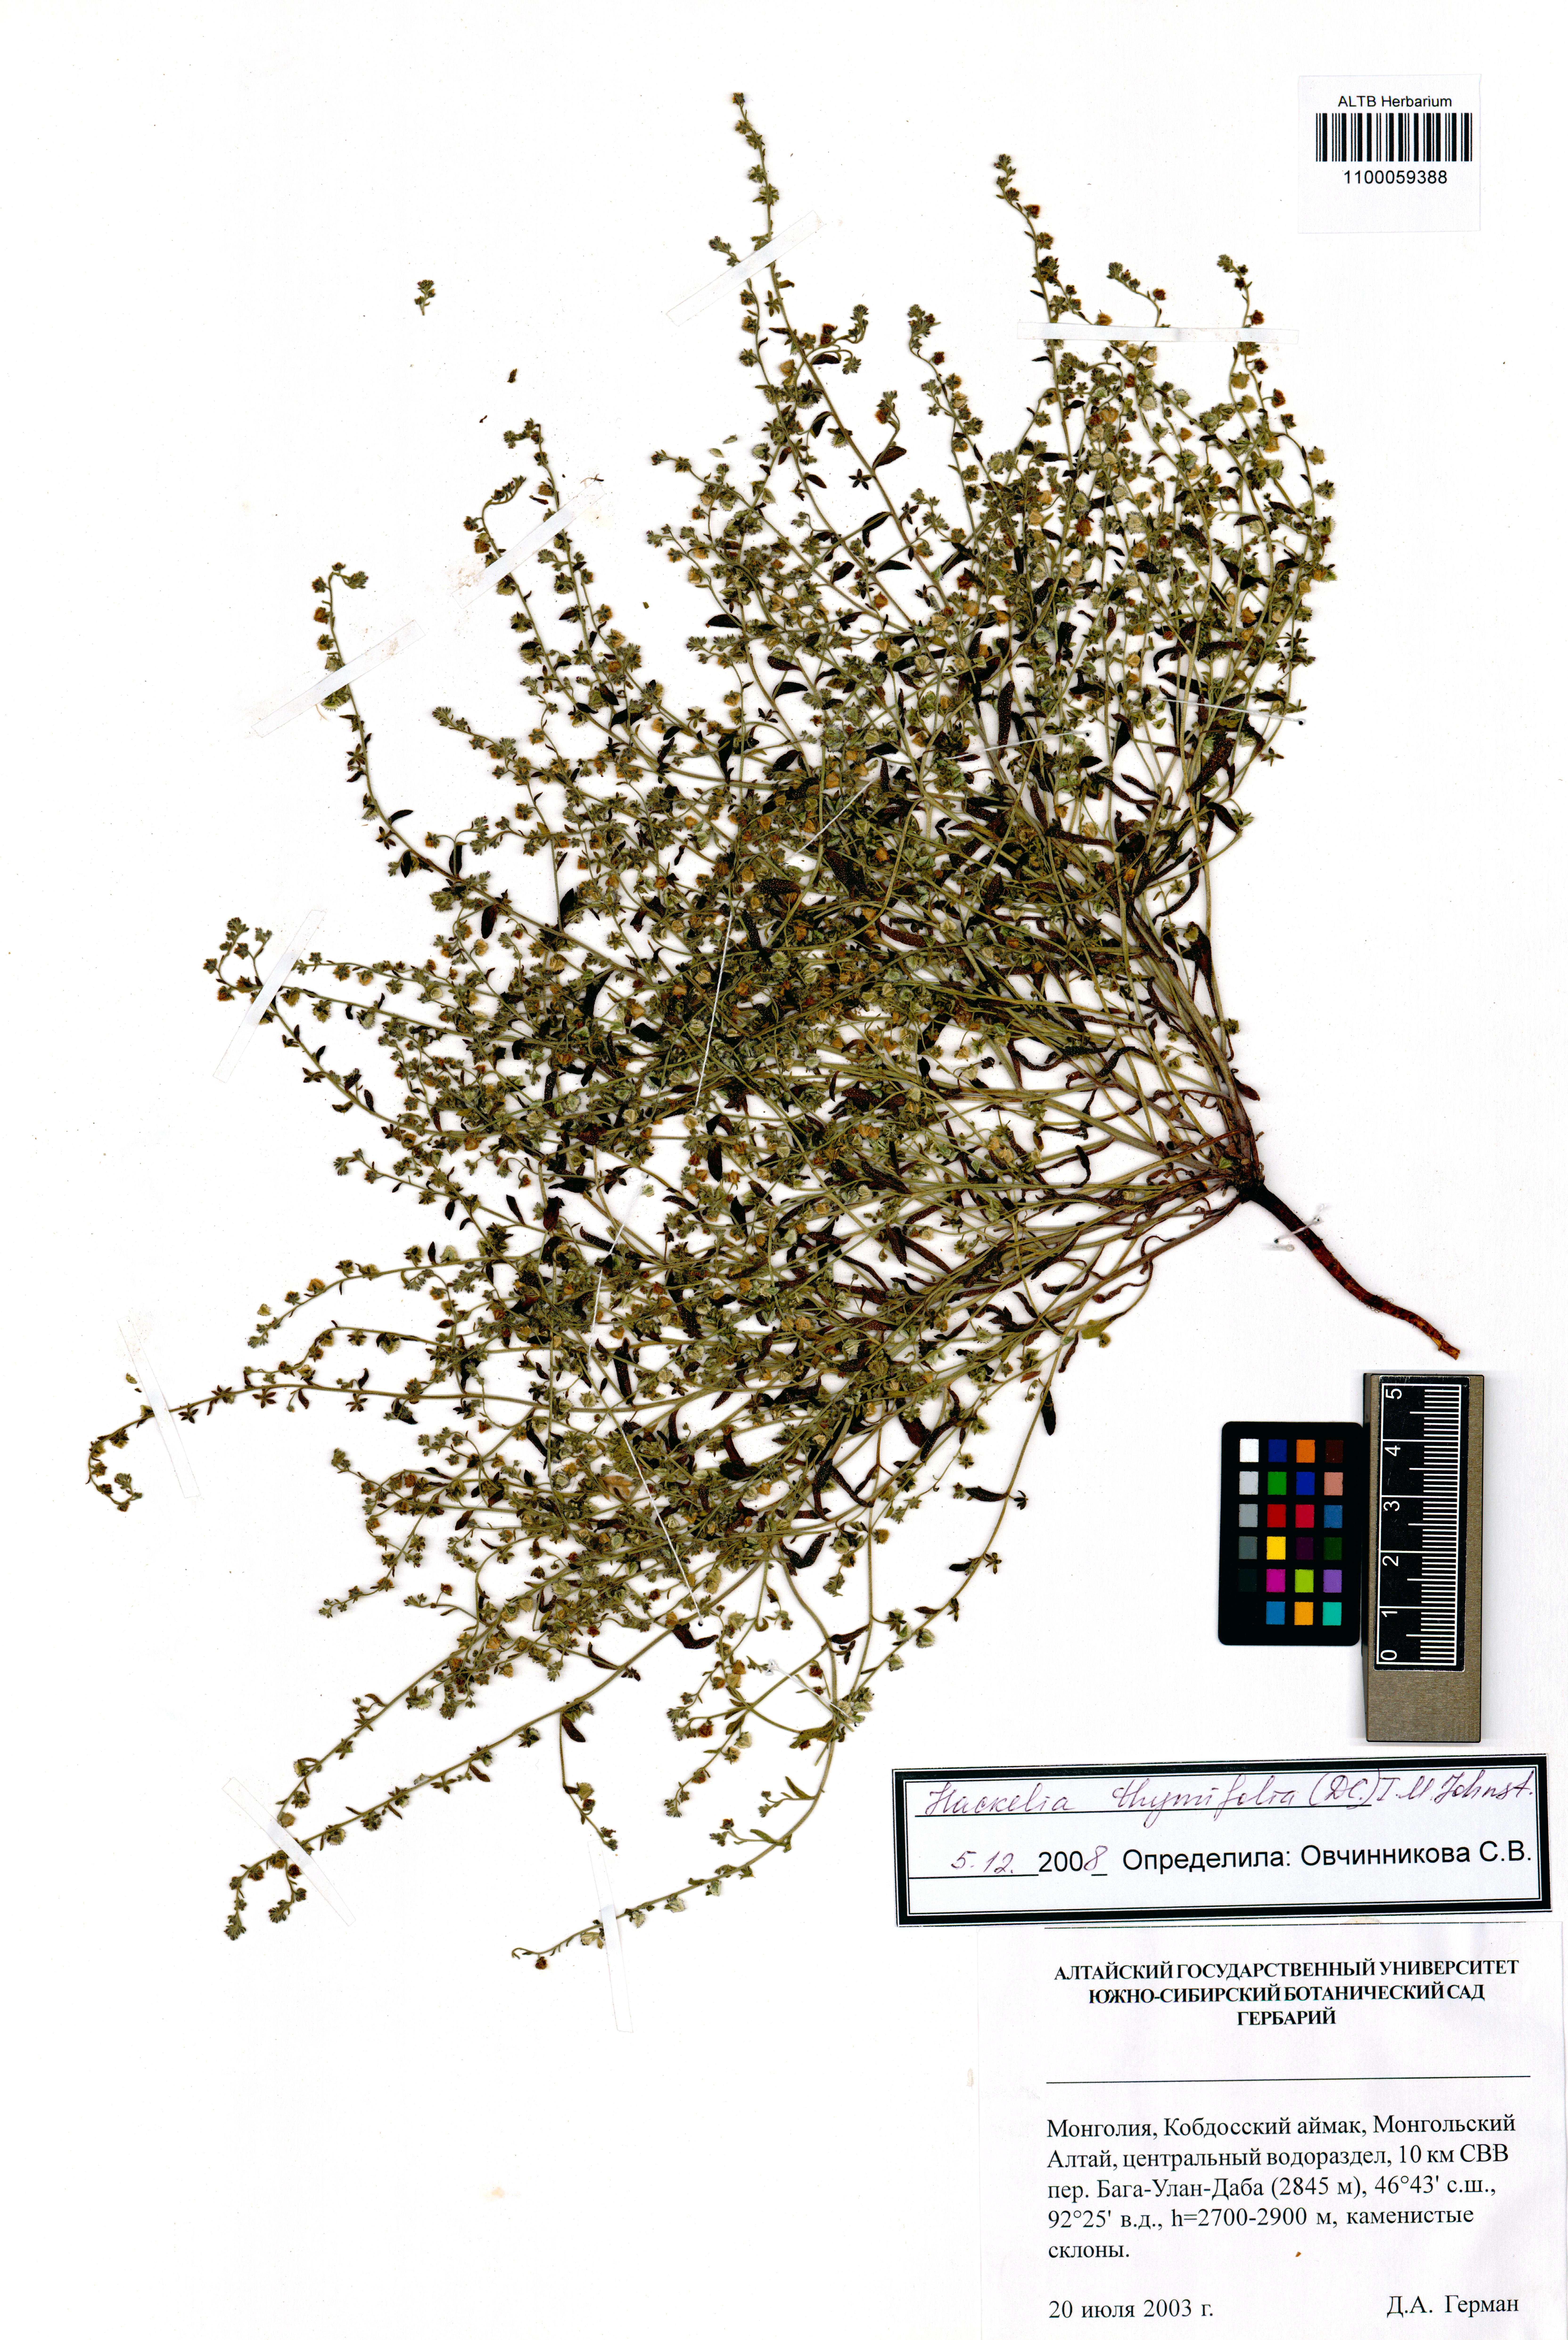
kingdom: Plantae
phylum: Tracheophyta
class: Magnoliopsida
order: Boraginales
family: Boraginaceae
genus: Eritrichium
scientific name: Eritrichium thymifolium
